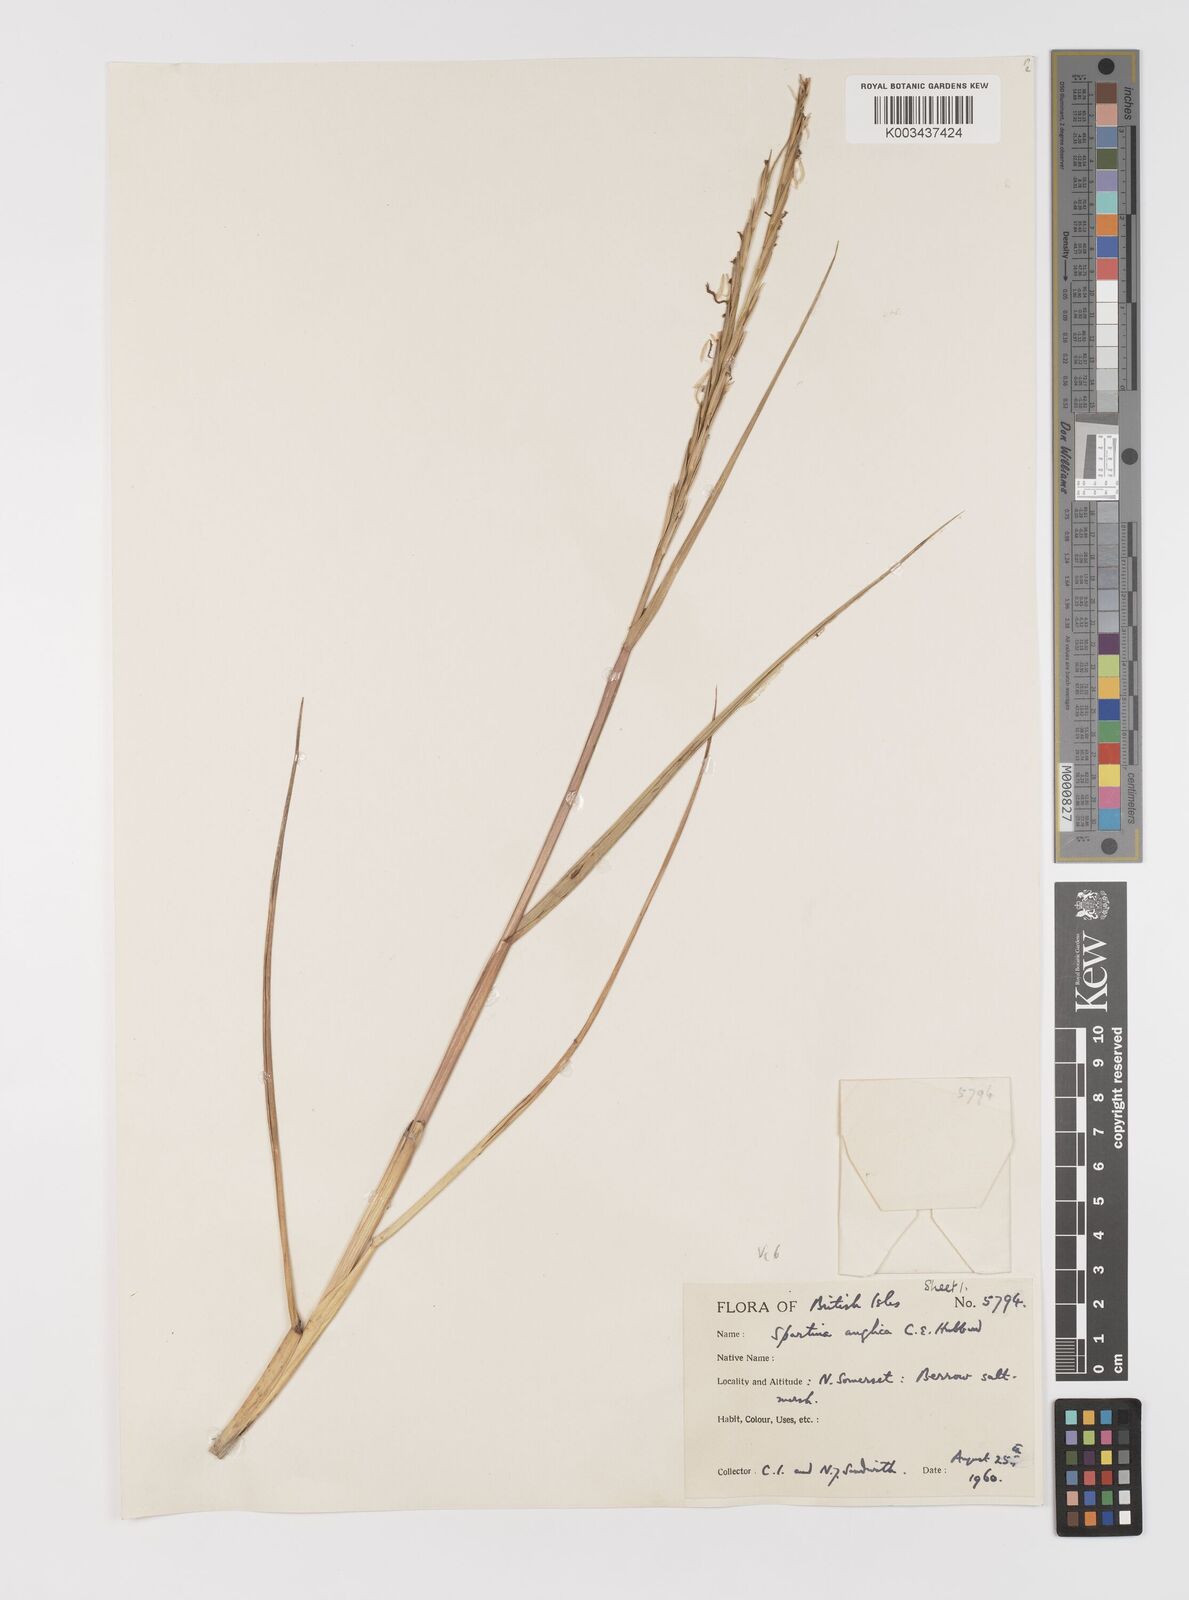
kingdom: Plantae
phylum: Tracheophyta
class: Liliopsida
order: Poales
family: Poaceae
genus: Sporobolus
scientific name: Sporobolus anglicus
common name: English cordgrass
